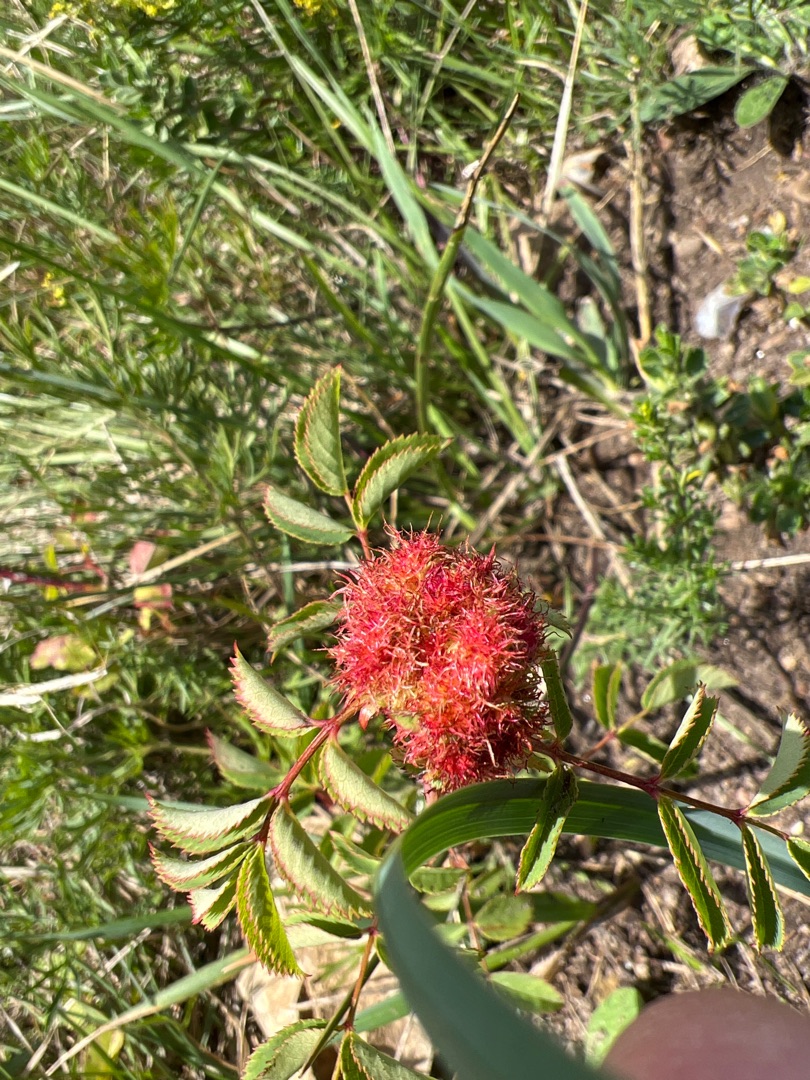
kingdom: Animalia
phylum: Arthropoda
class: Insecta
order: Hymenoptera
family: Cynipidae
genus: Diplolepis
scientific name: Diplolepis rosae
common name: Bedeguargalhveps
